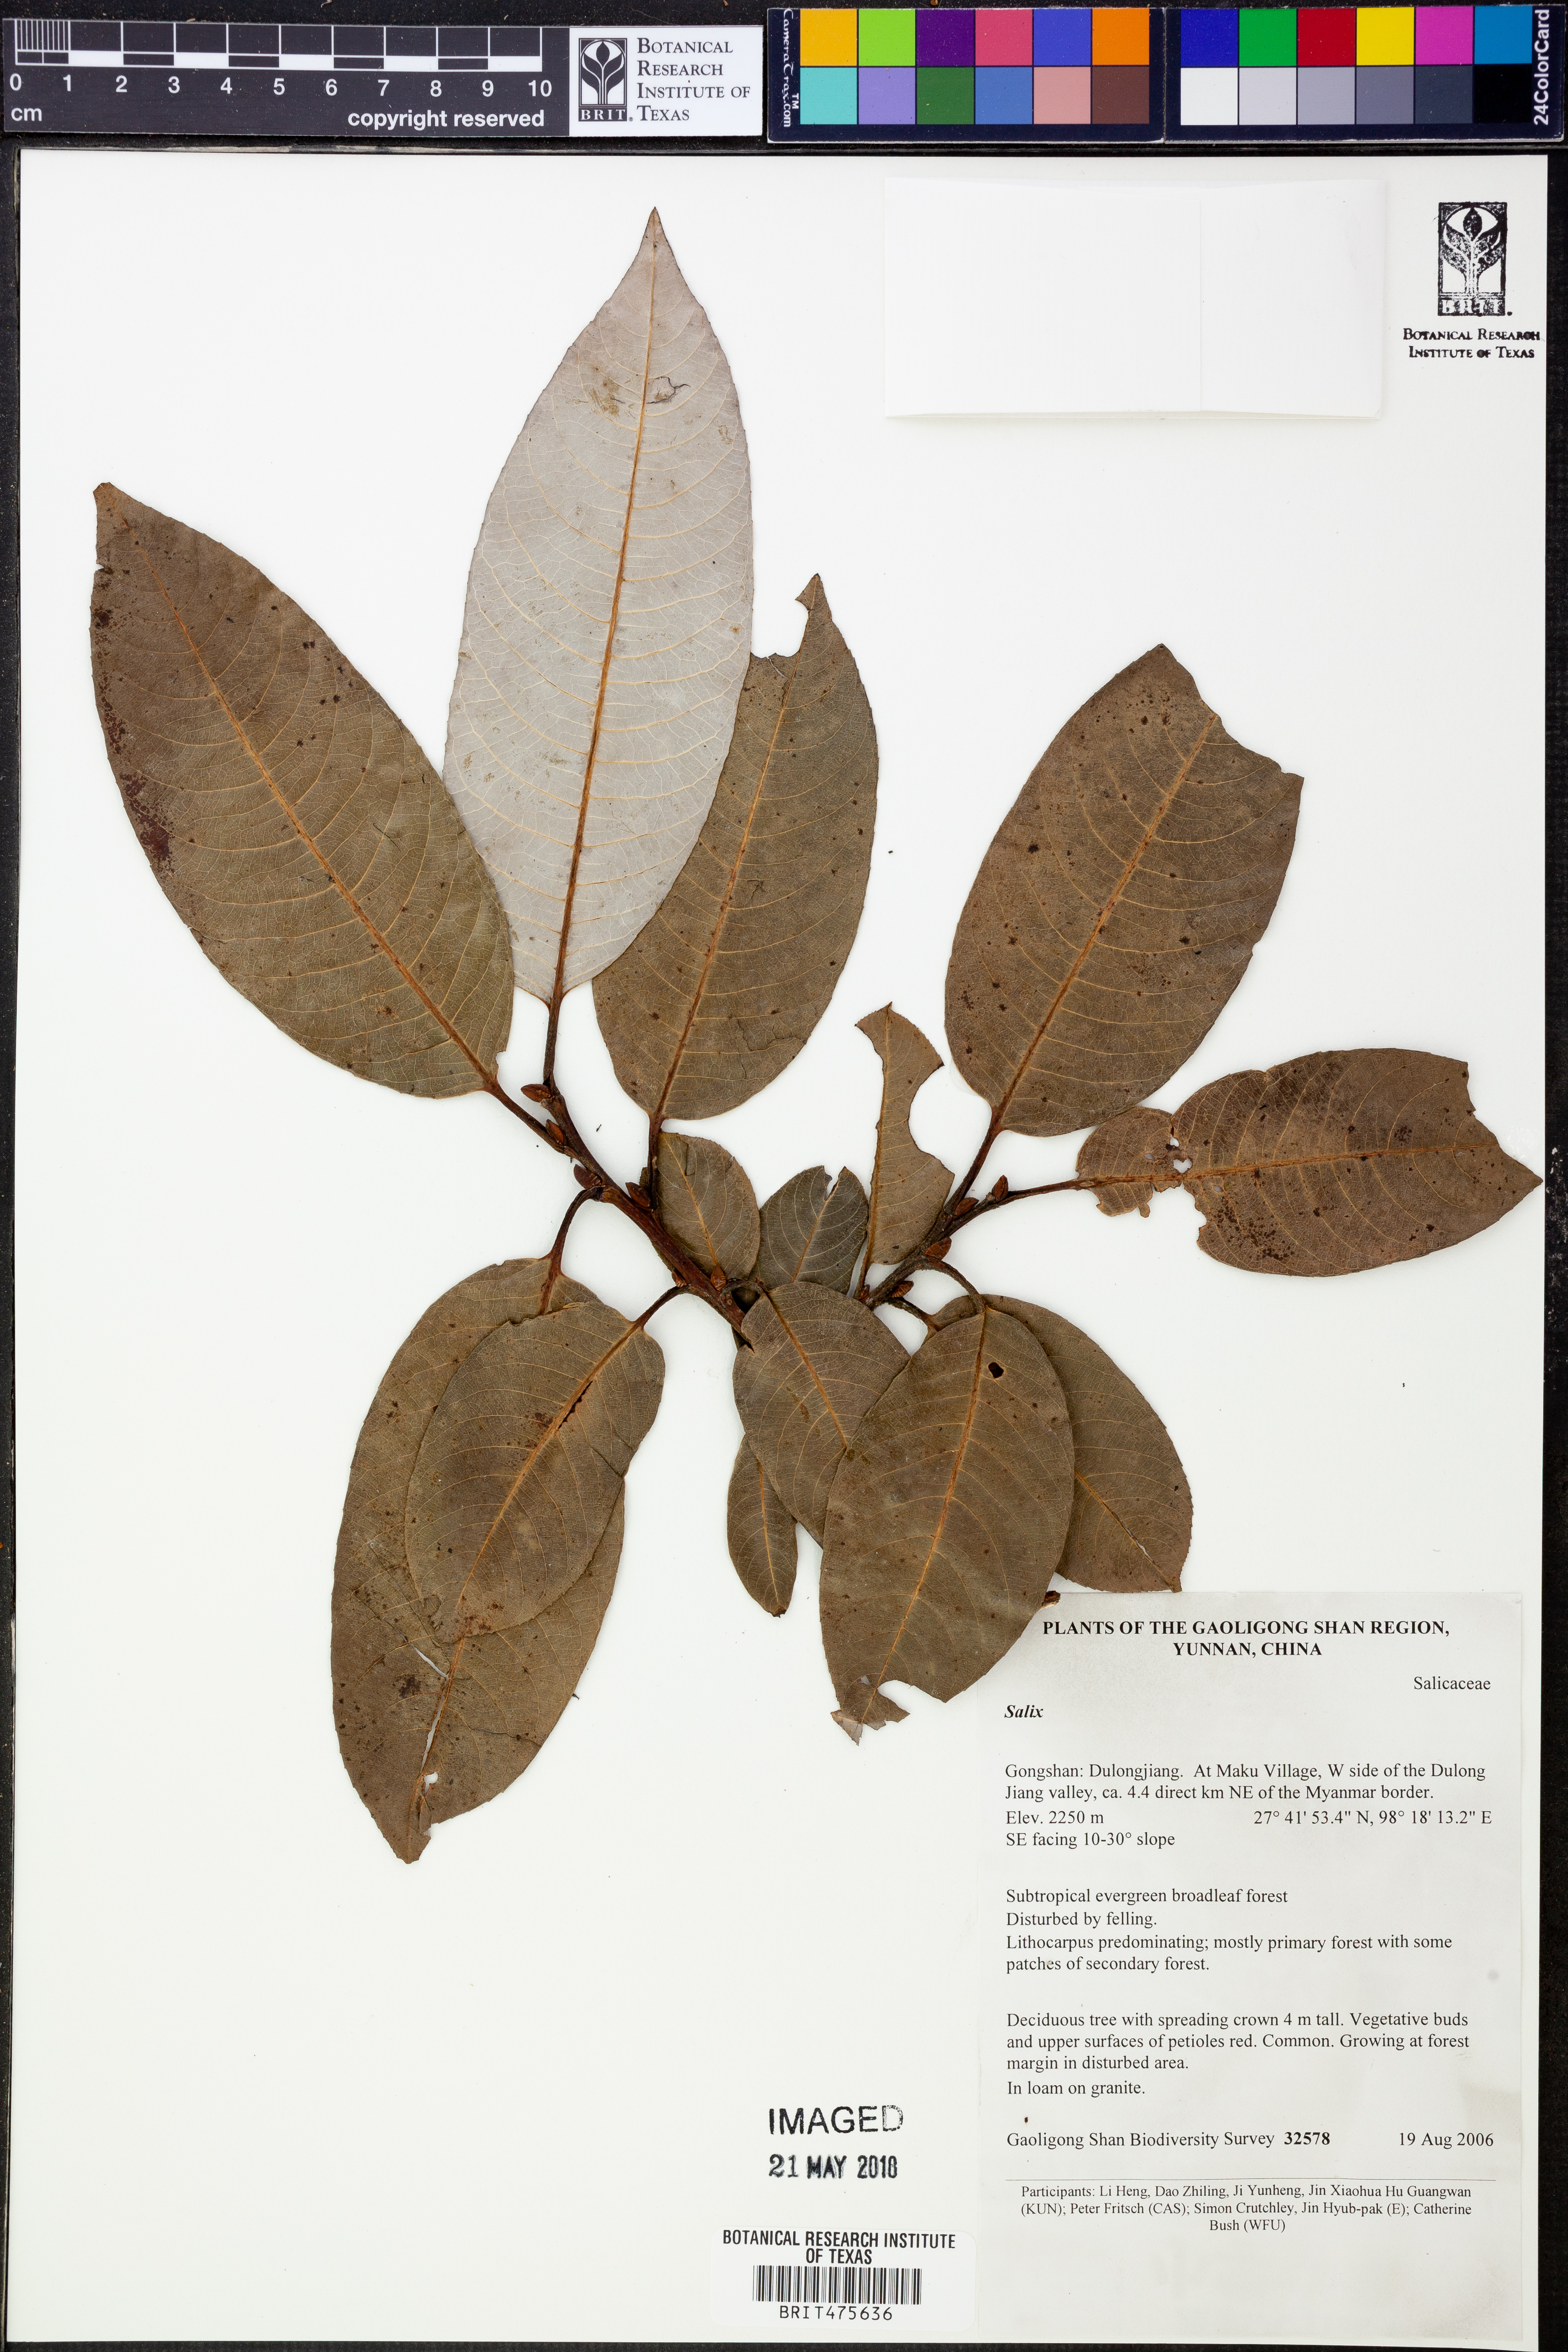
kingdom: Plantae
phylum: Tracheophyta
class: Magnoliopsida
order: Malpighiales
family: Salicaceae
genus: Salix
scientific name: Salix
